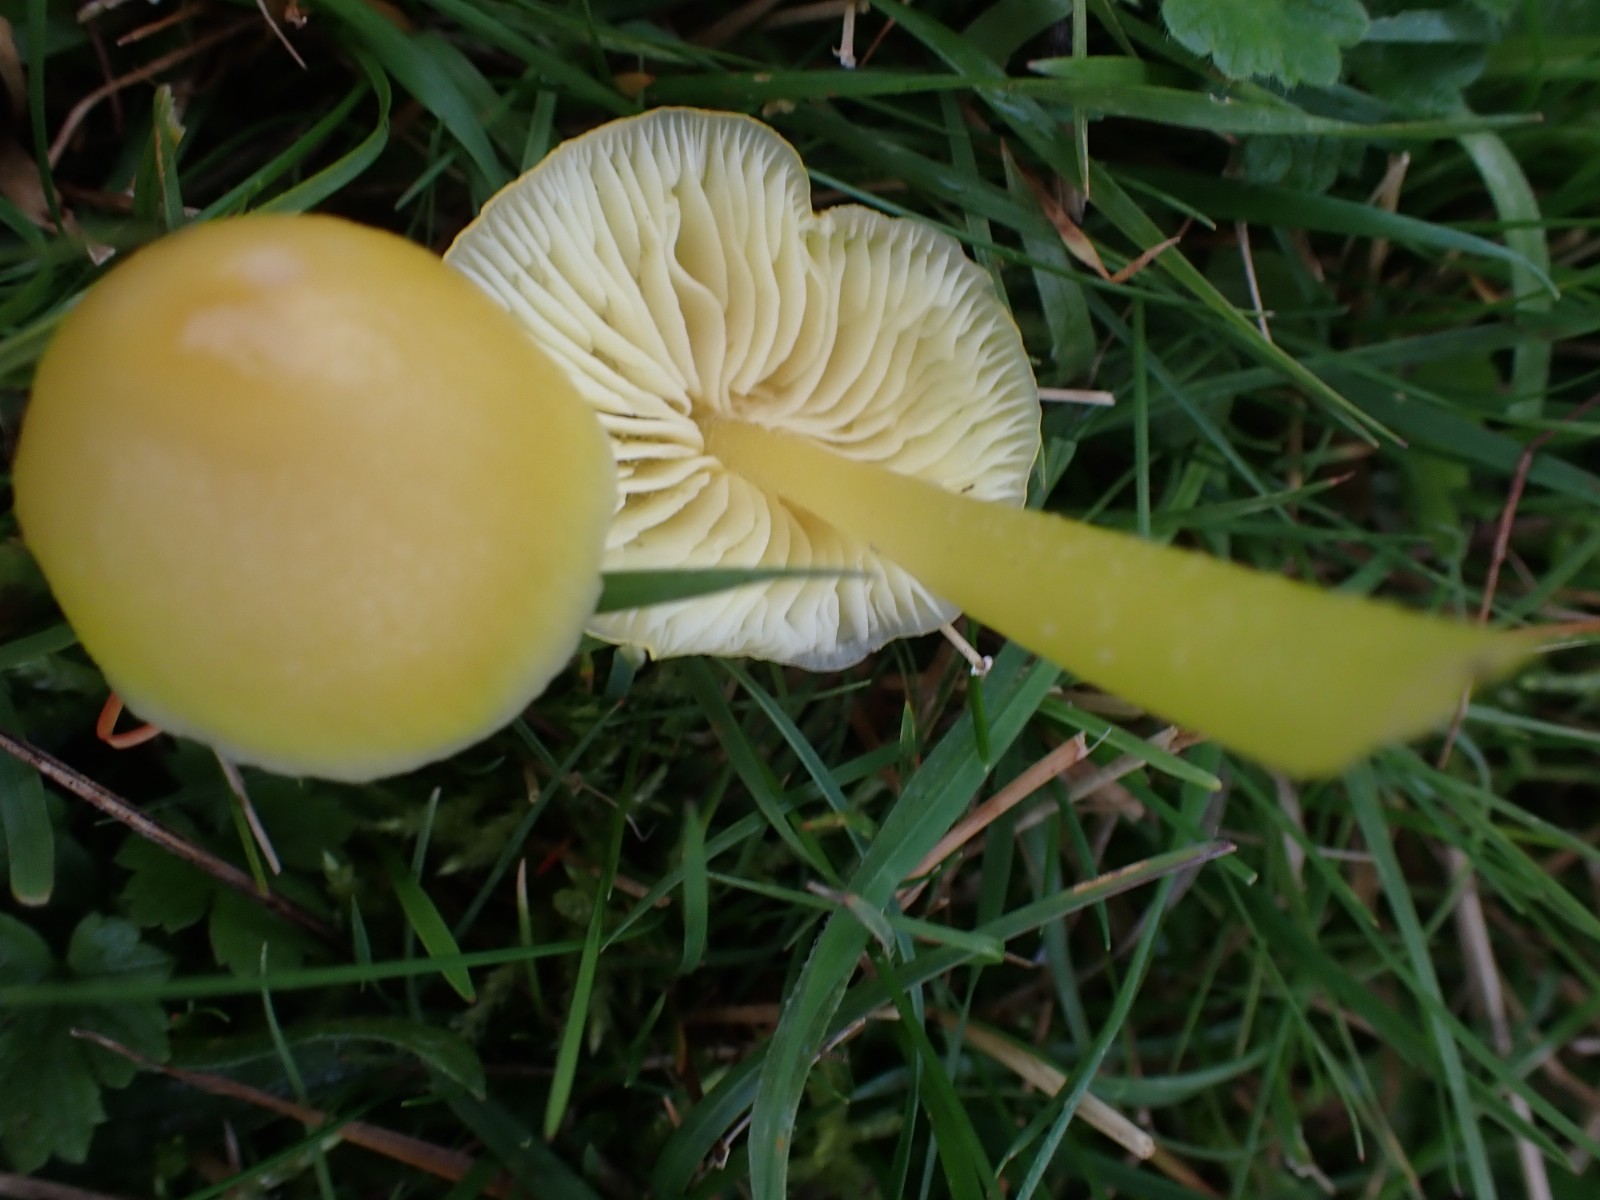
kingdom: Fungi
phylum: Basidiomycota
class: Agaricomycetes
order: Agaricales
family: Hygrophoraceae
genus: Hygrocybe
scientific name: Hygrocybe chlorophana
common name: gul vokshat
